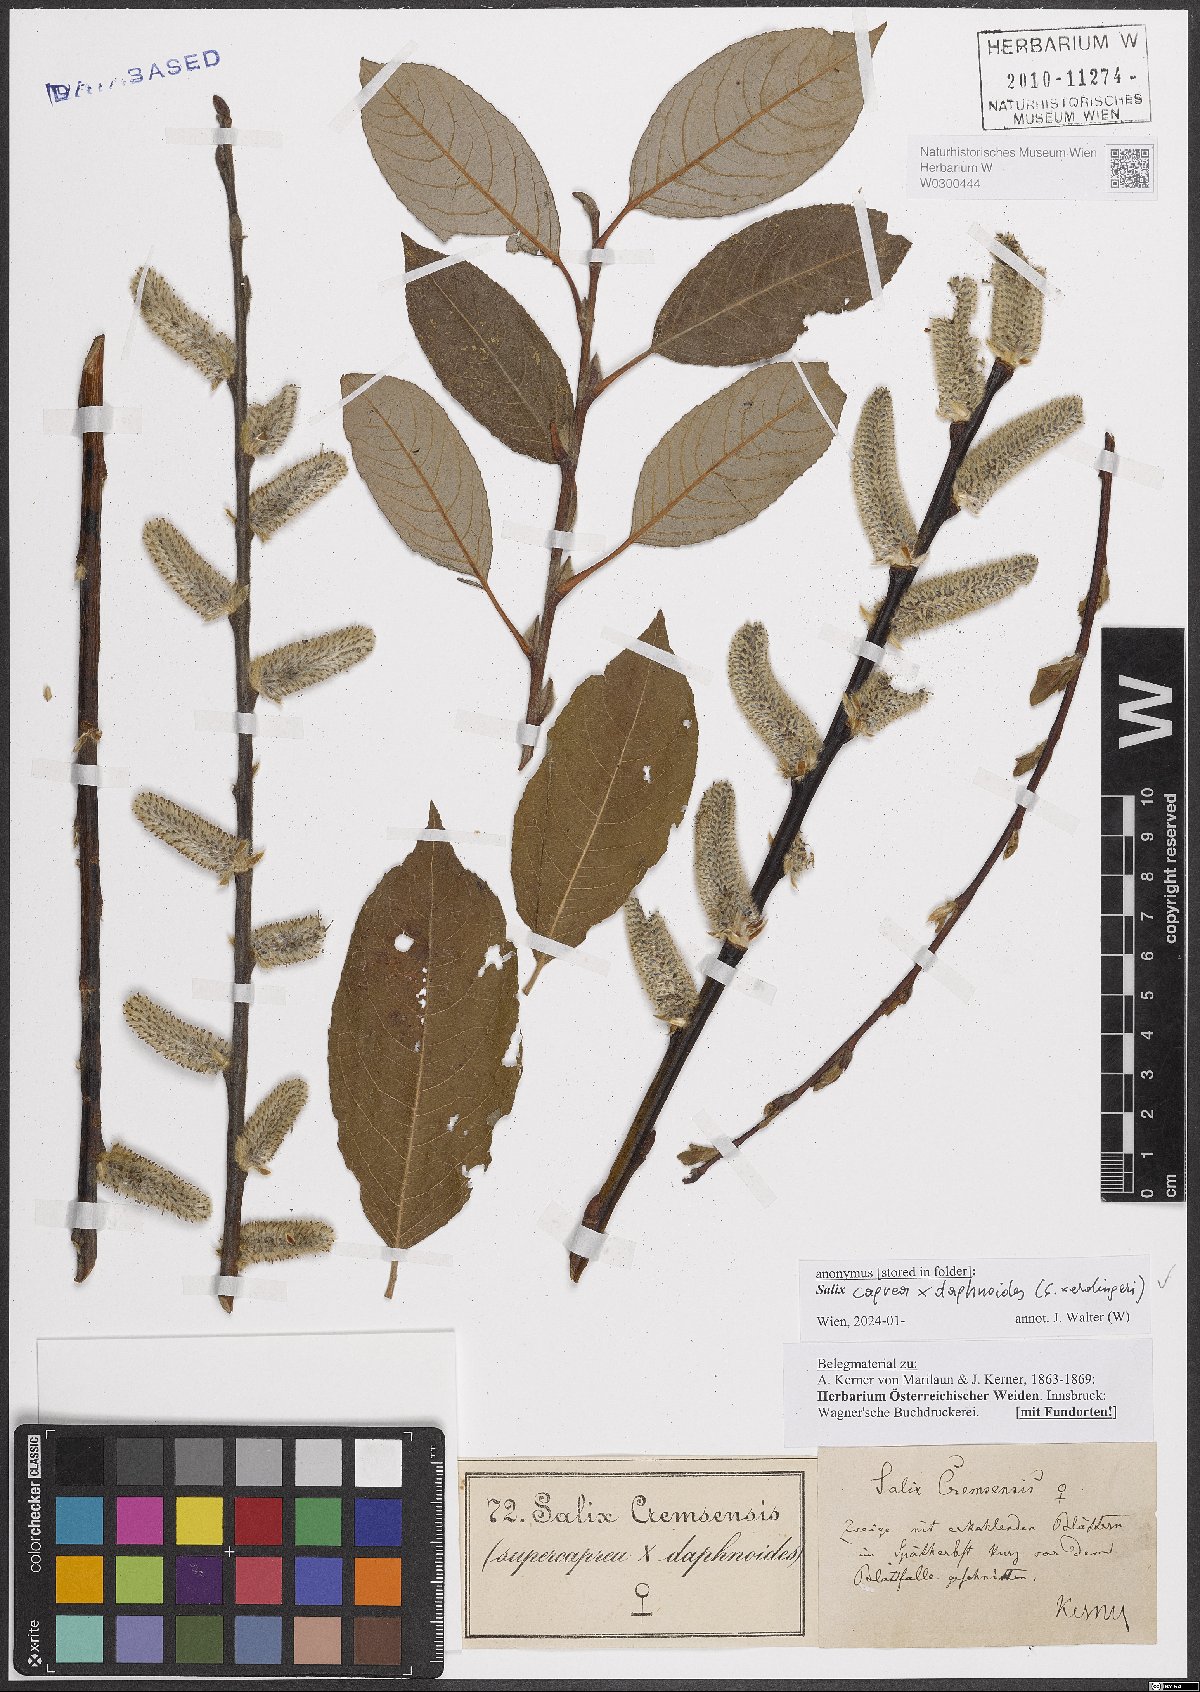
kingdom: Plantae
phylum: Tracheophyta
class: Magnoliopsida
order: Malpighiales
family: Salicaceae
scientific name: Salicaceae
